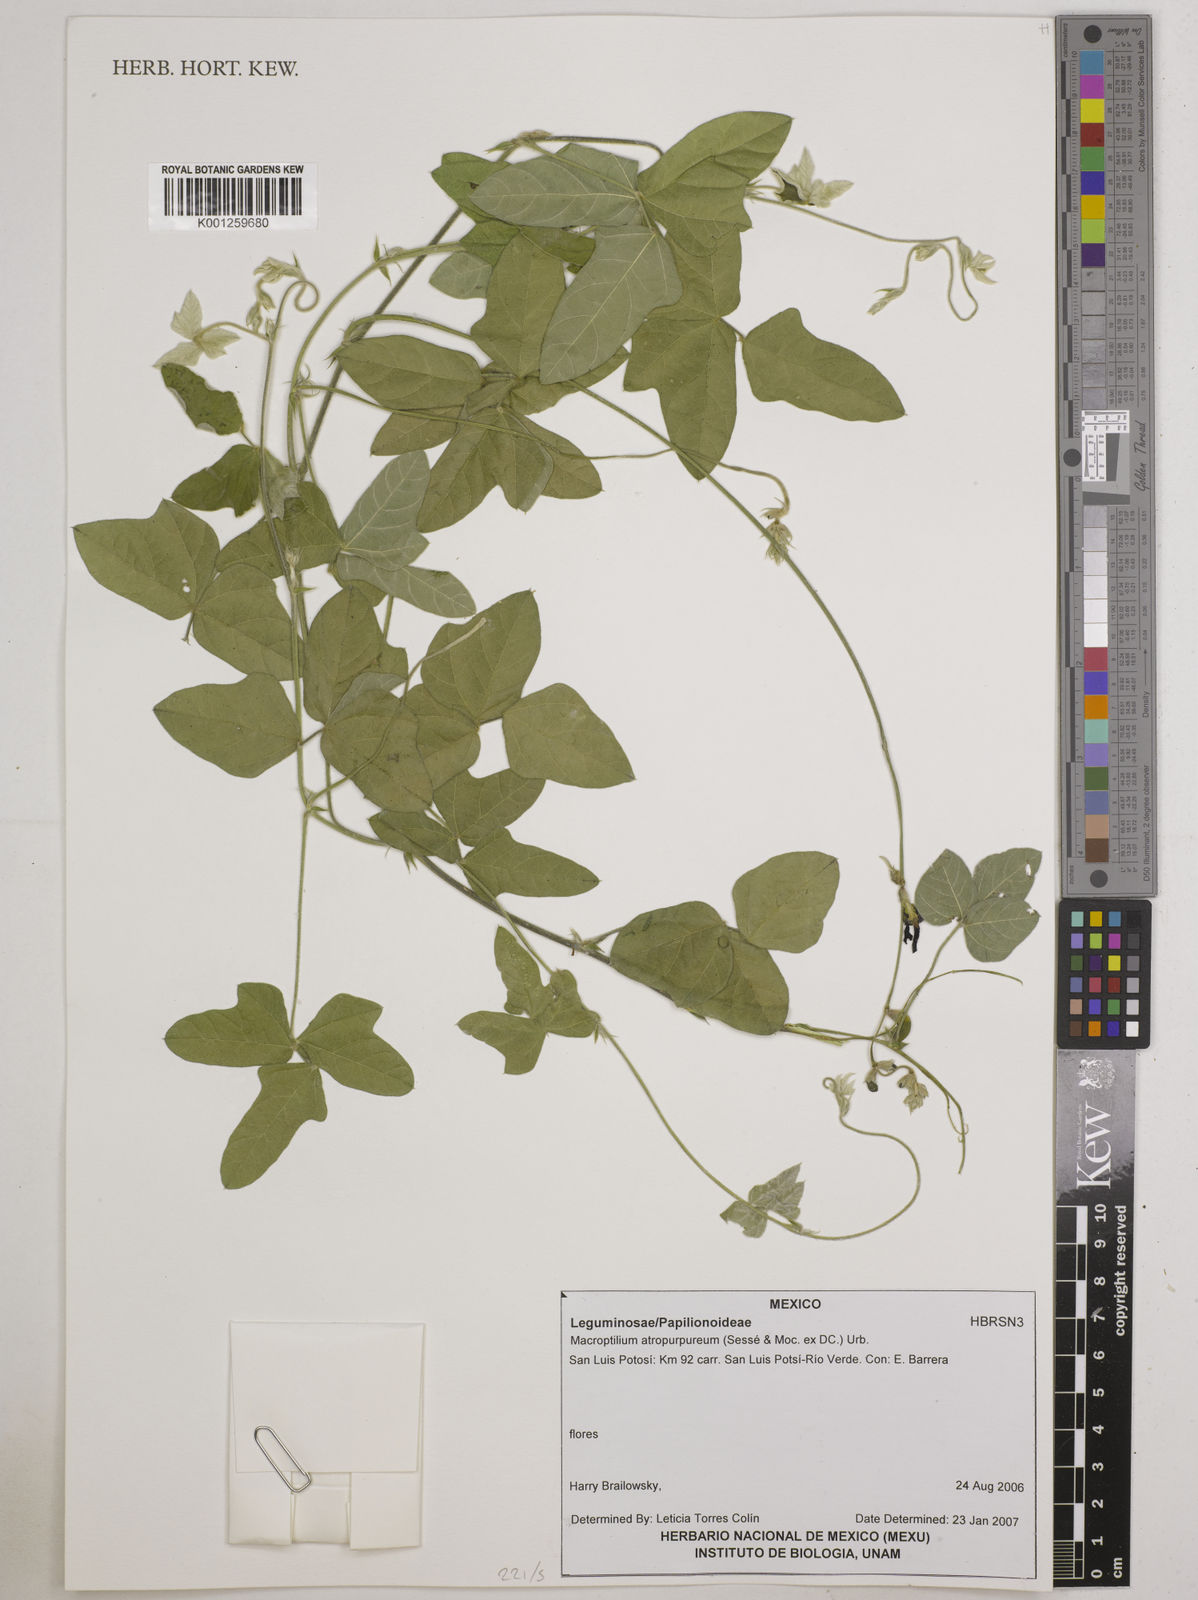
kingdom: Plantae
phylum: Tracheophyta
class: Magnoliopsida
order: Fabales
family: Fabaceae
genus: Macroptilium
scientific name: Macroptilium atropurpureum
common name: Purple bushbean
